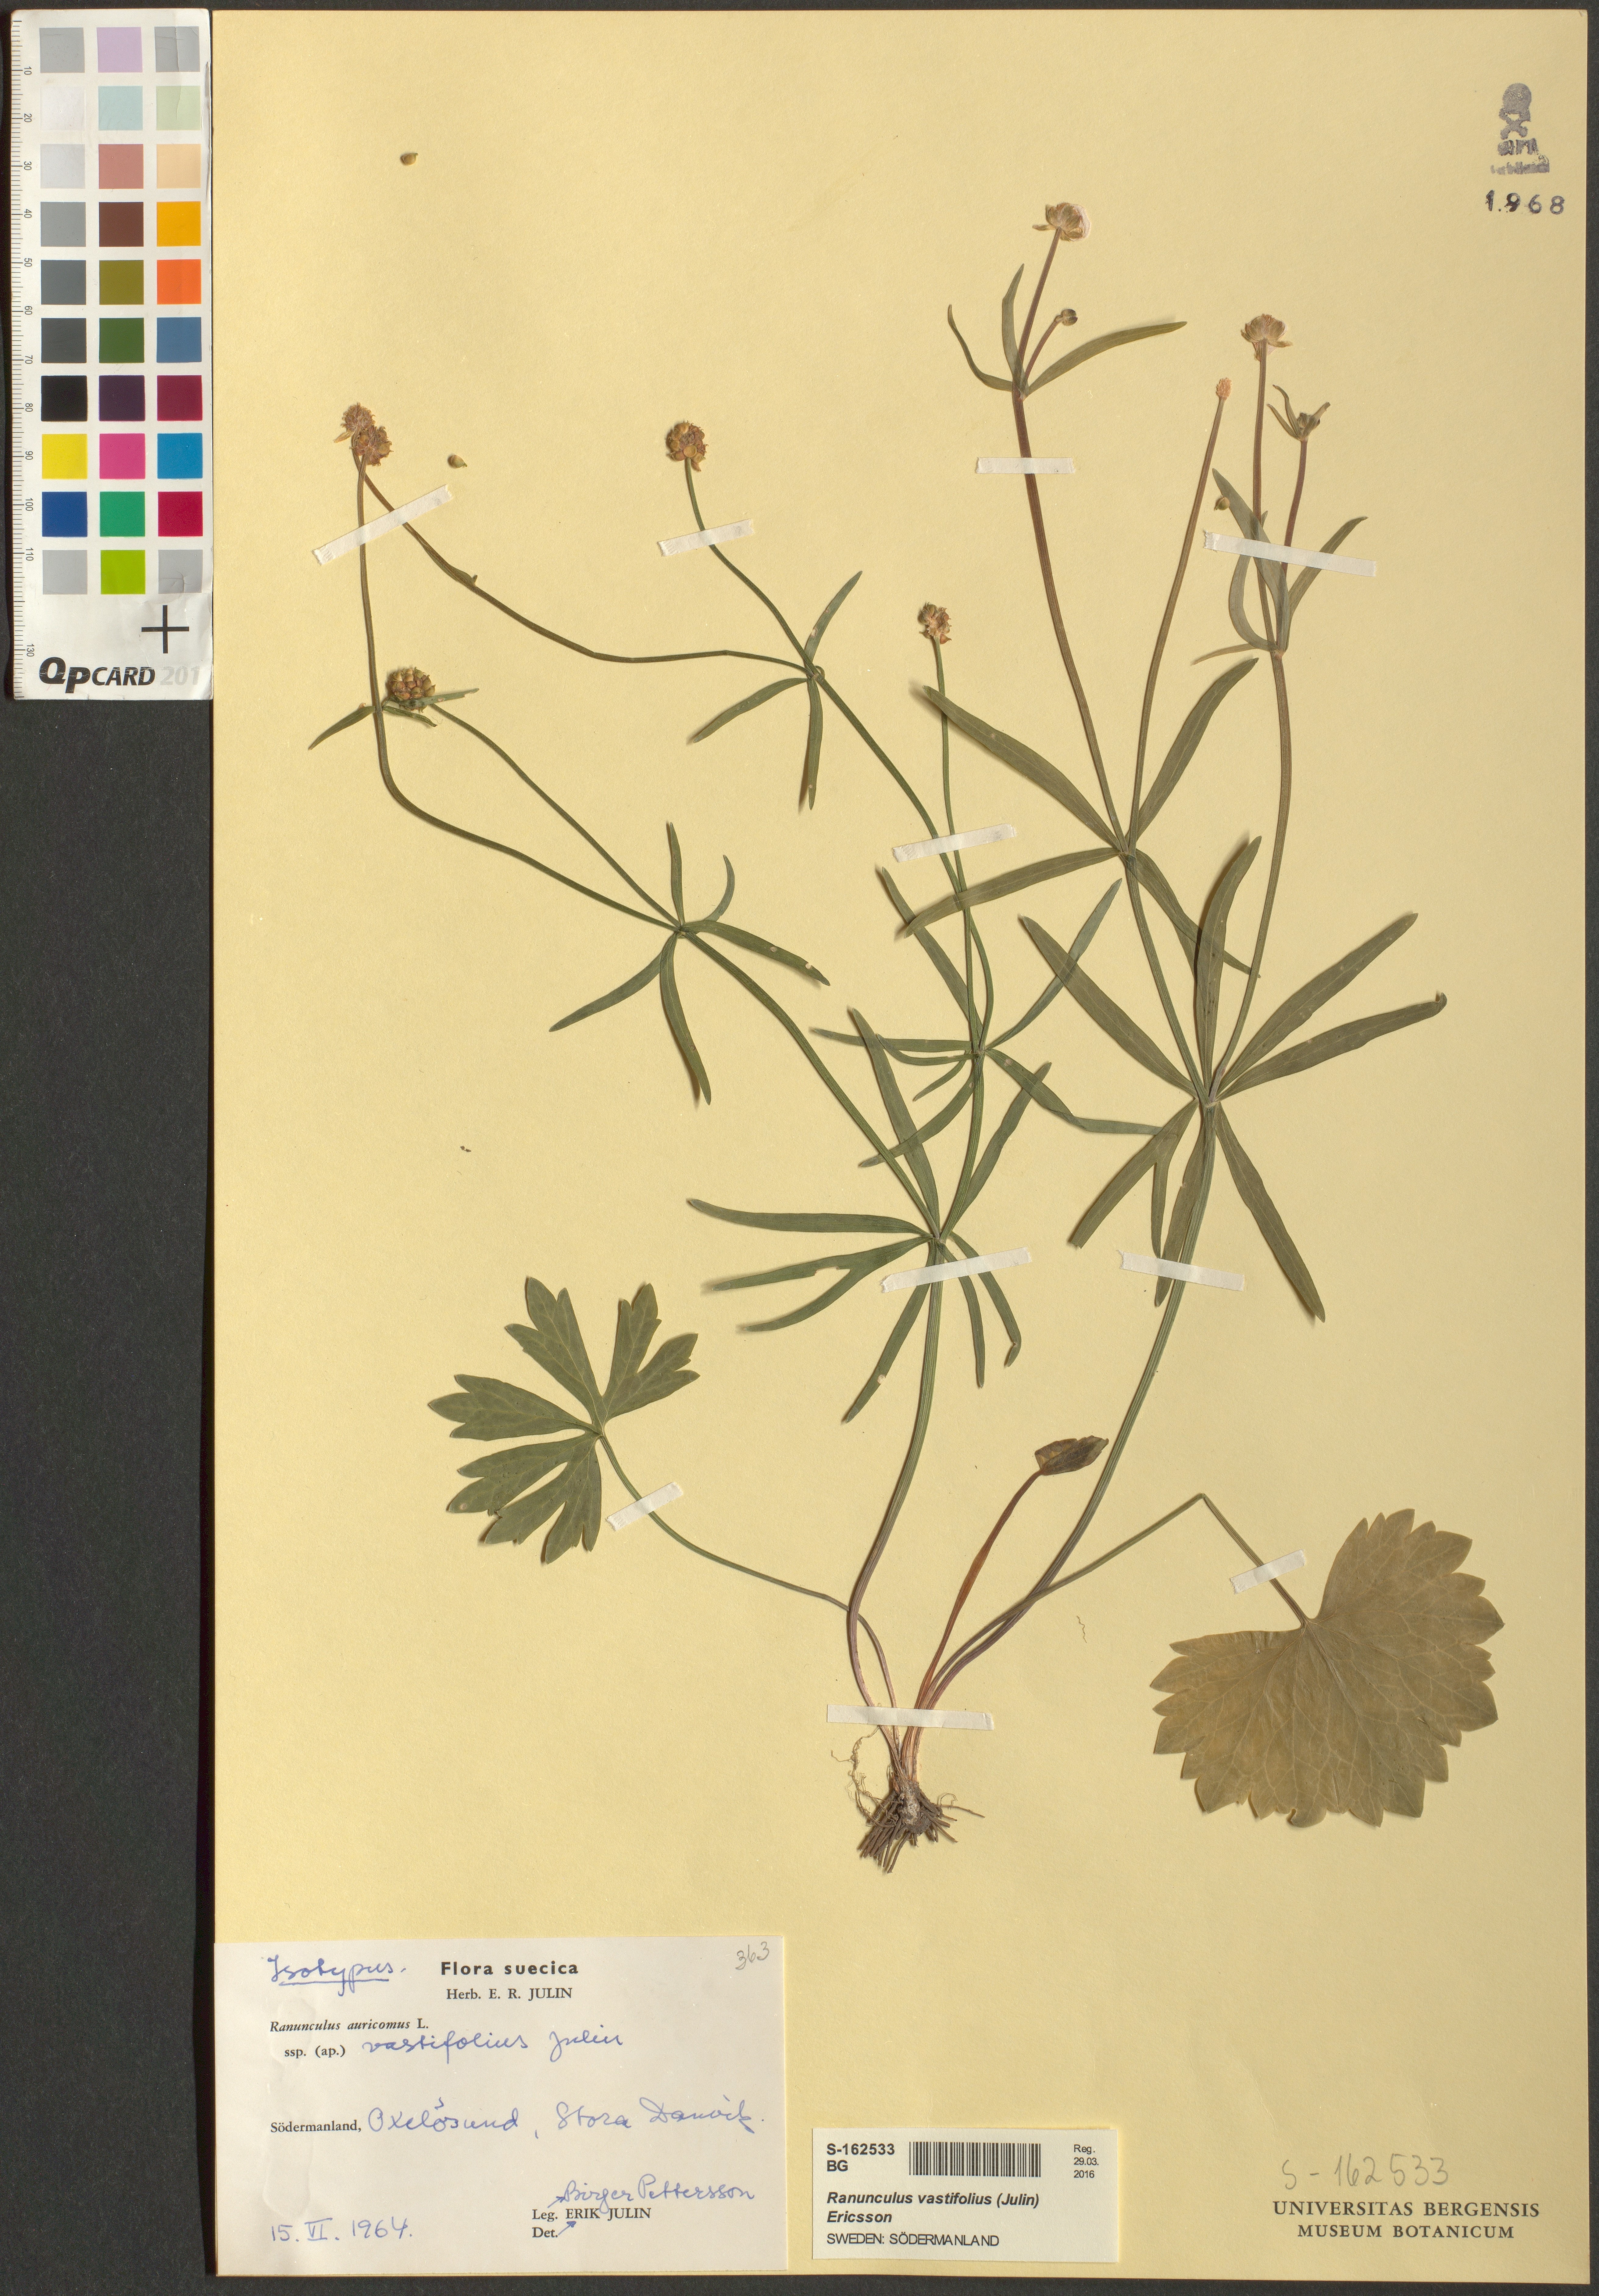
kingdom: Plantae
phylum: Tracheophyta
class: Magnoliopsida
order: Ranunculales
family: Ranunculaceae
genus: Ranunculus
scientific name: Ranunculus vastifolius
